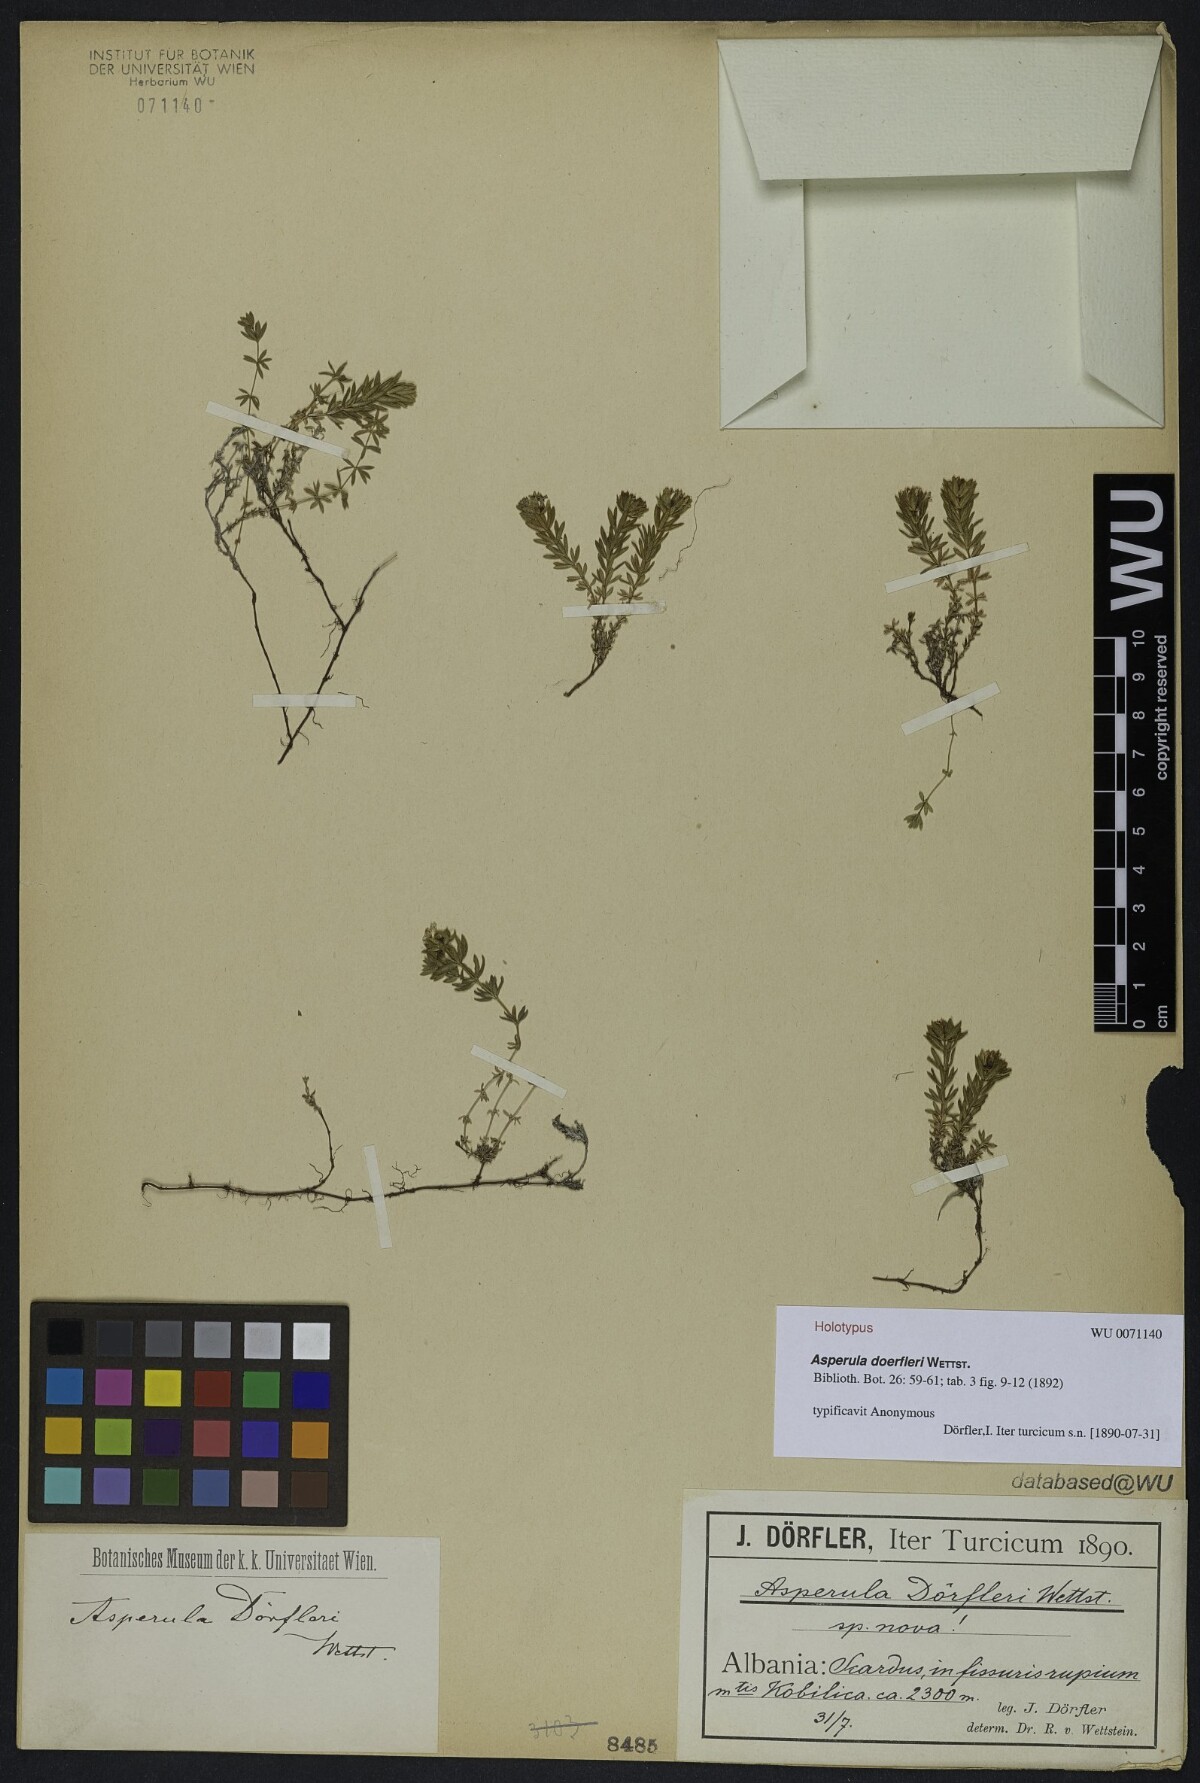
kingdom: Plantae
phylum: Tracheophyta
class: Magnoliopsida
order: Gentianales
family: Rubiaceae
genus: Hexaphylla
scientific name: Hexaphylla doerfleri
